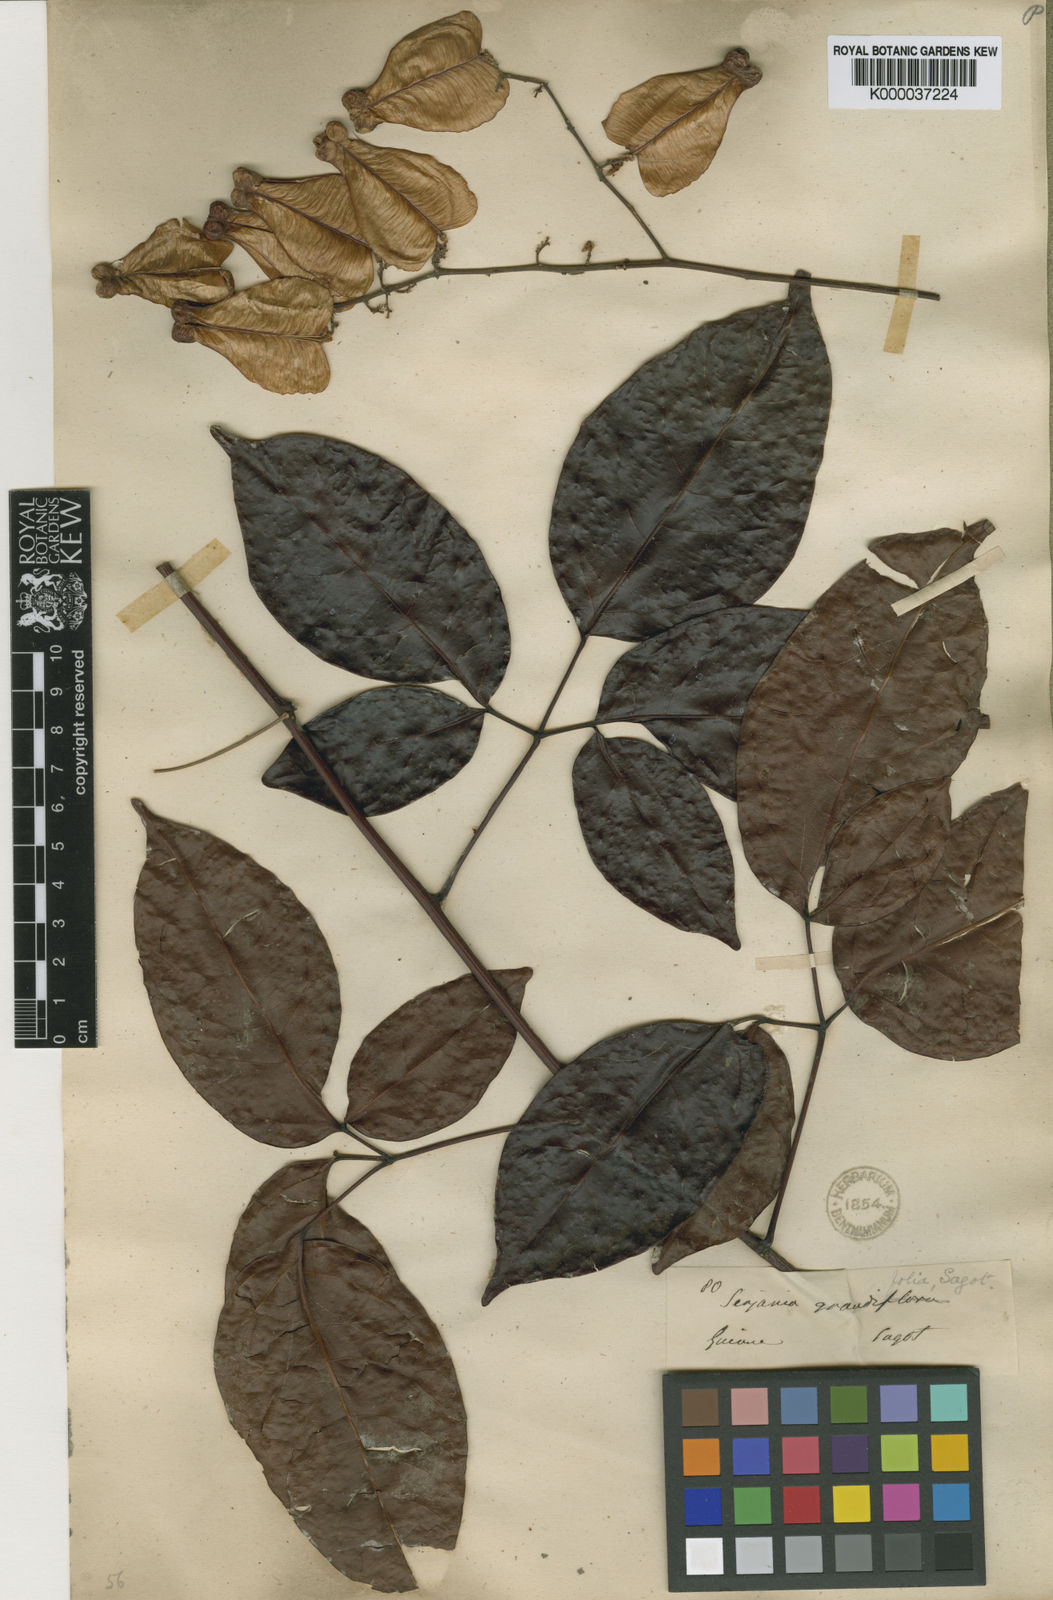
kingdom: Plantae
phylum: Tracheophyta
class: Magnoliopsida
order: Sapindales
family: Sapindaceae
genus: Serjania
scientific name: Serjania grandifolia
